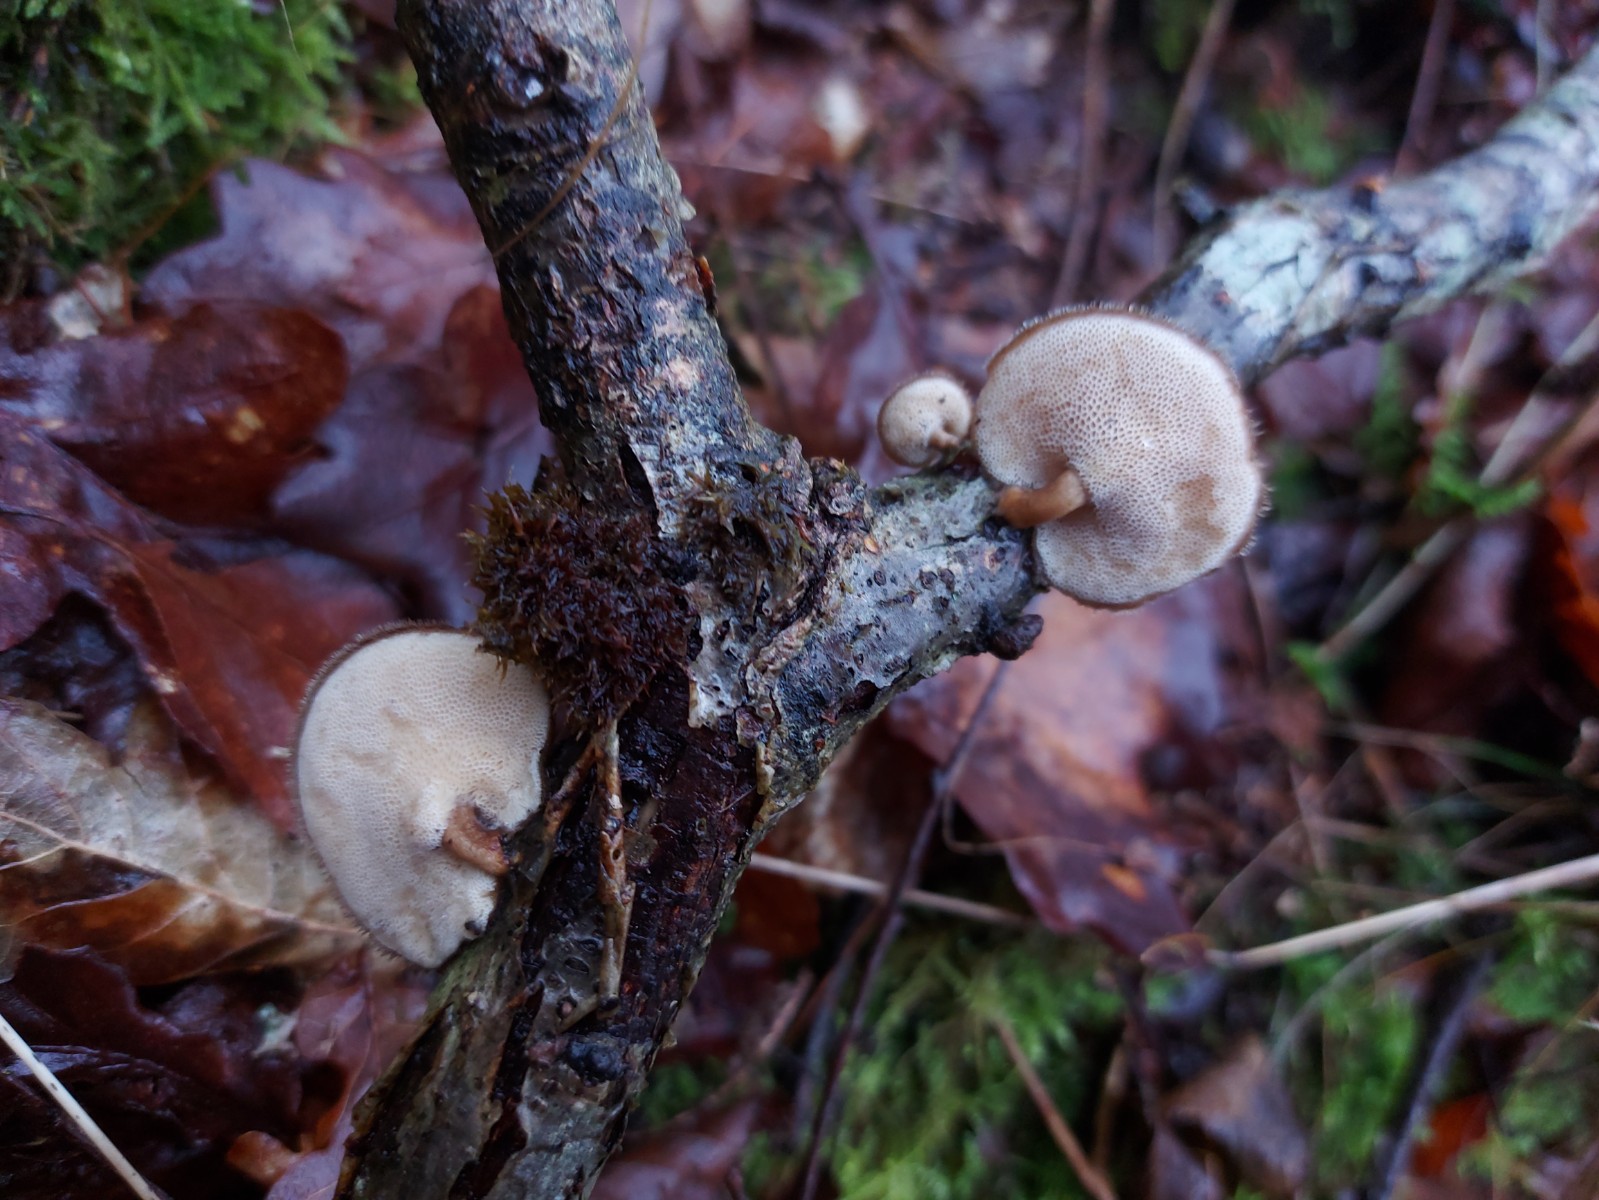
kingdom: Fungi
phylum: Basidiomycota
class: Agaricomycetes
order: Polyporales
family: Polyporaceae
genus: Lentinus
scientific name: Lentinus brumalis
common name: vinter-stilkporesvamp
